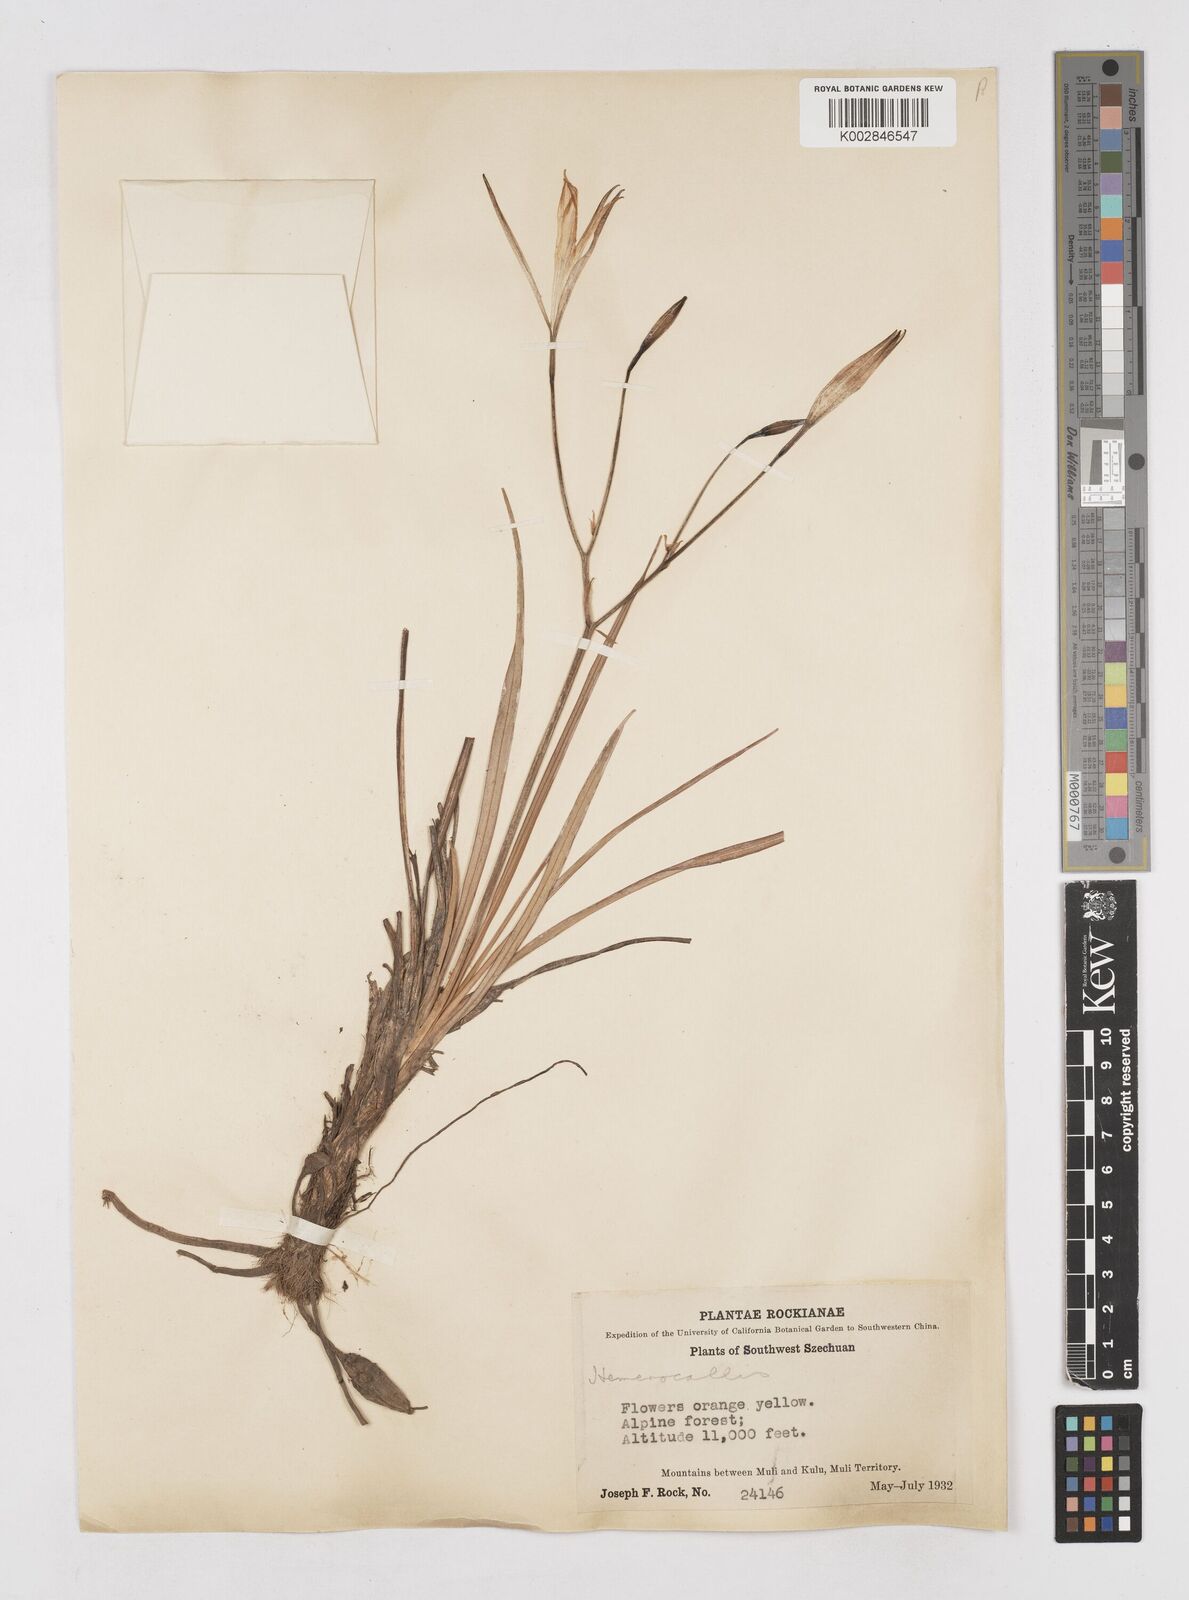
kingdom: Plantae
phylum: Tracheophyta
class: Liliopsida
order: Asparagales
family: Asphodelaceae
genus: Hemerocallis
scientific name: Hemerocallis plicata
